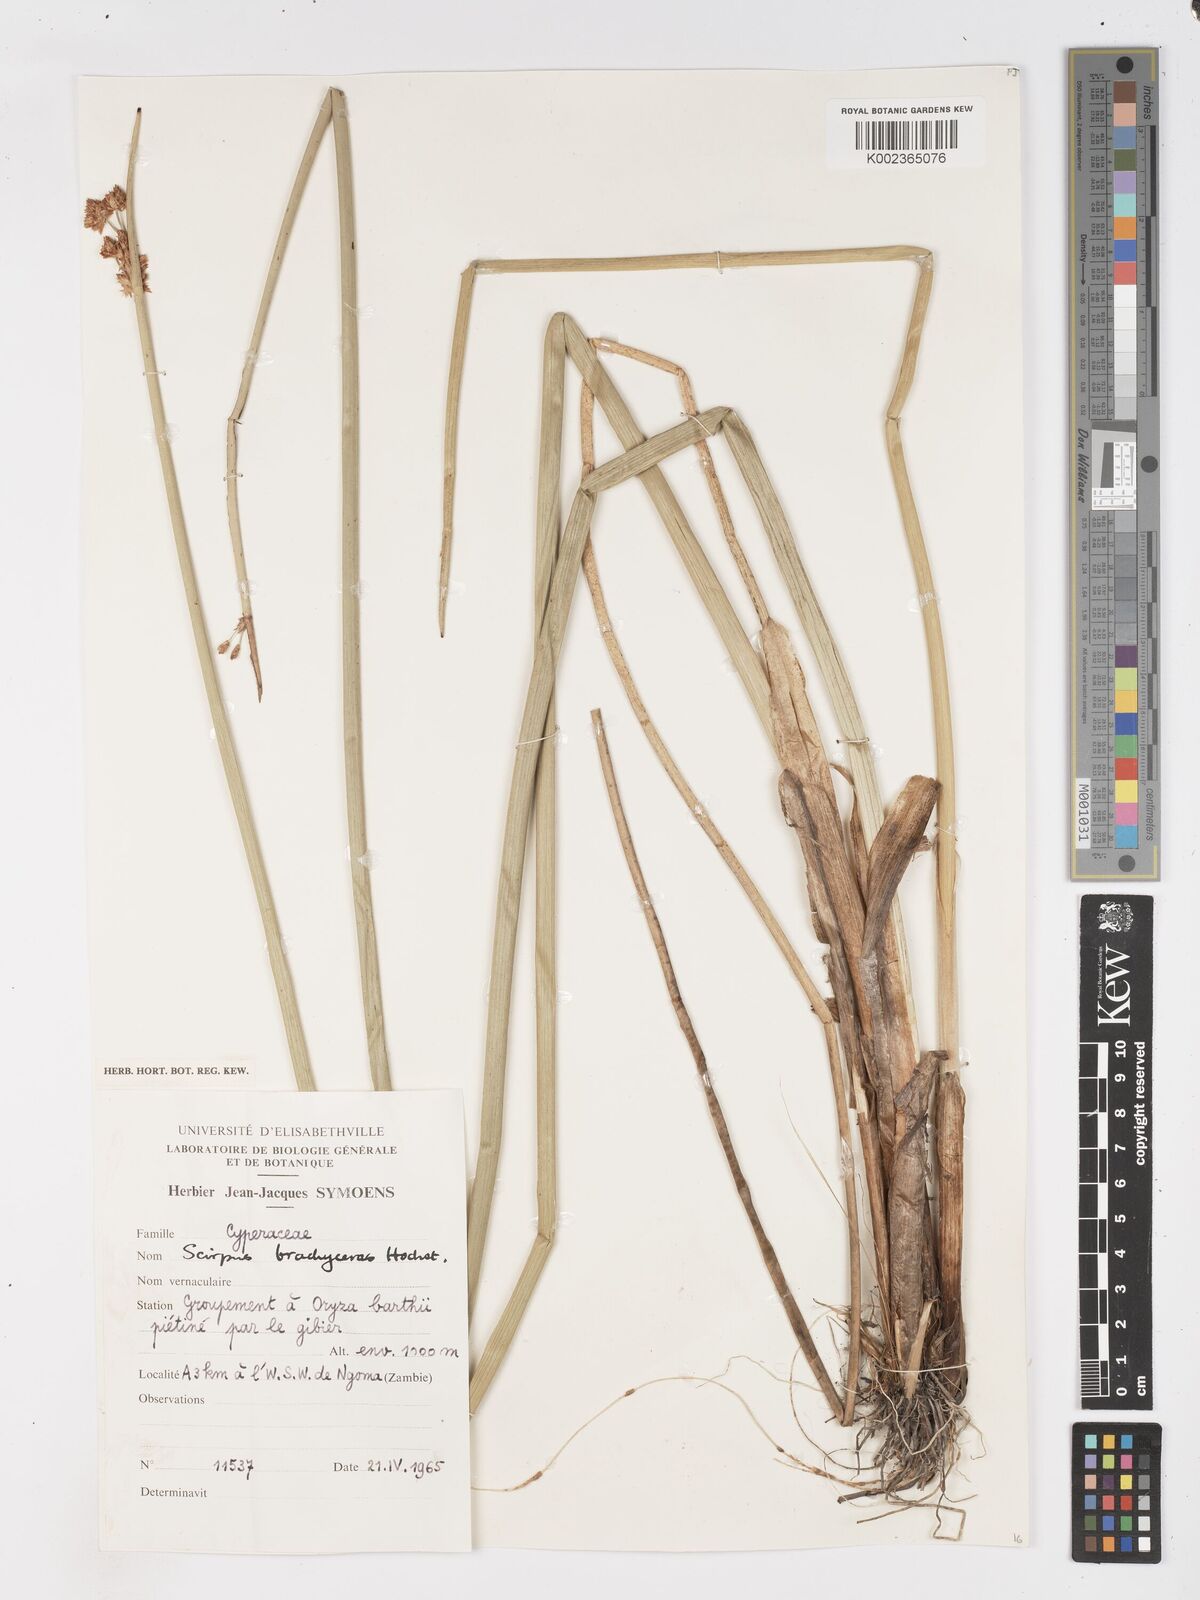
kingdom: Plantae
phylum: Tracheophyta
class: Liliopsida
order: Poales
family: Cyperaceae
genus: Schoenoplectiella
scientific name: Schoenoplectiella corymbosa
